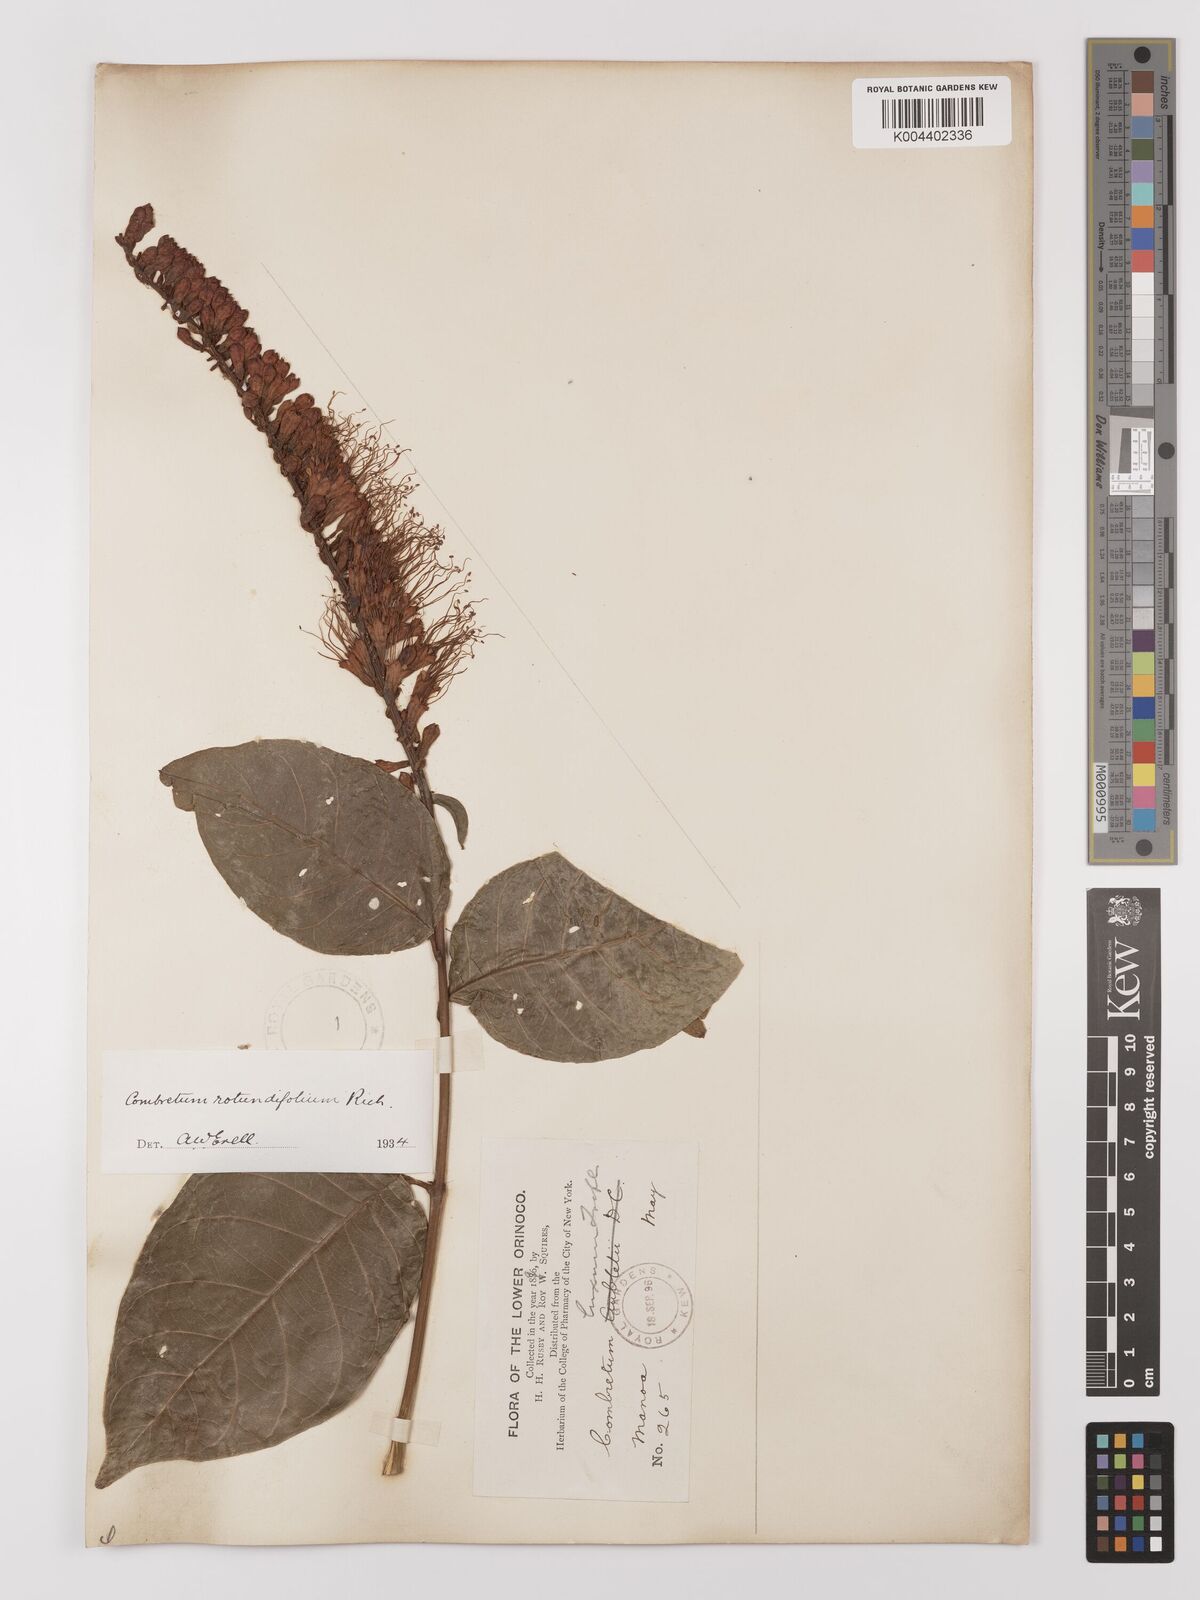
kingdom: Plantae
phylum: Tracheophyta
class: Magnoliopsida
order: Myrtales
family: Combretaceae
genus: Combretum
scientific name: Combretum
